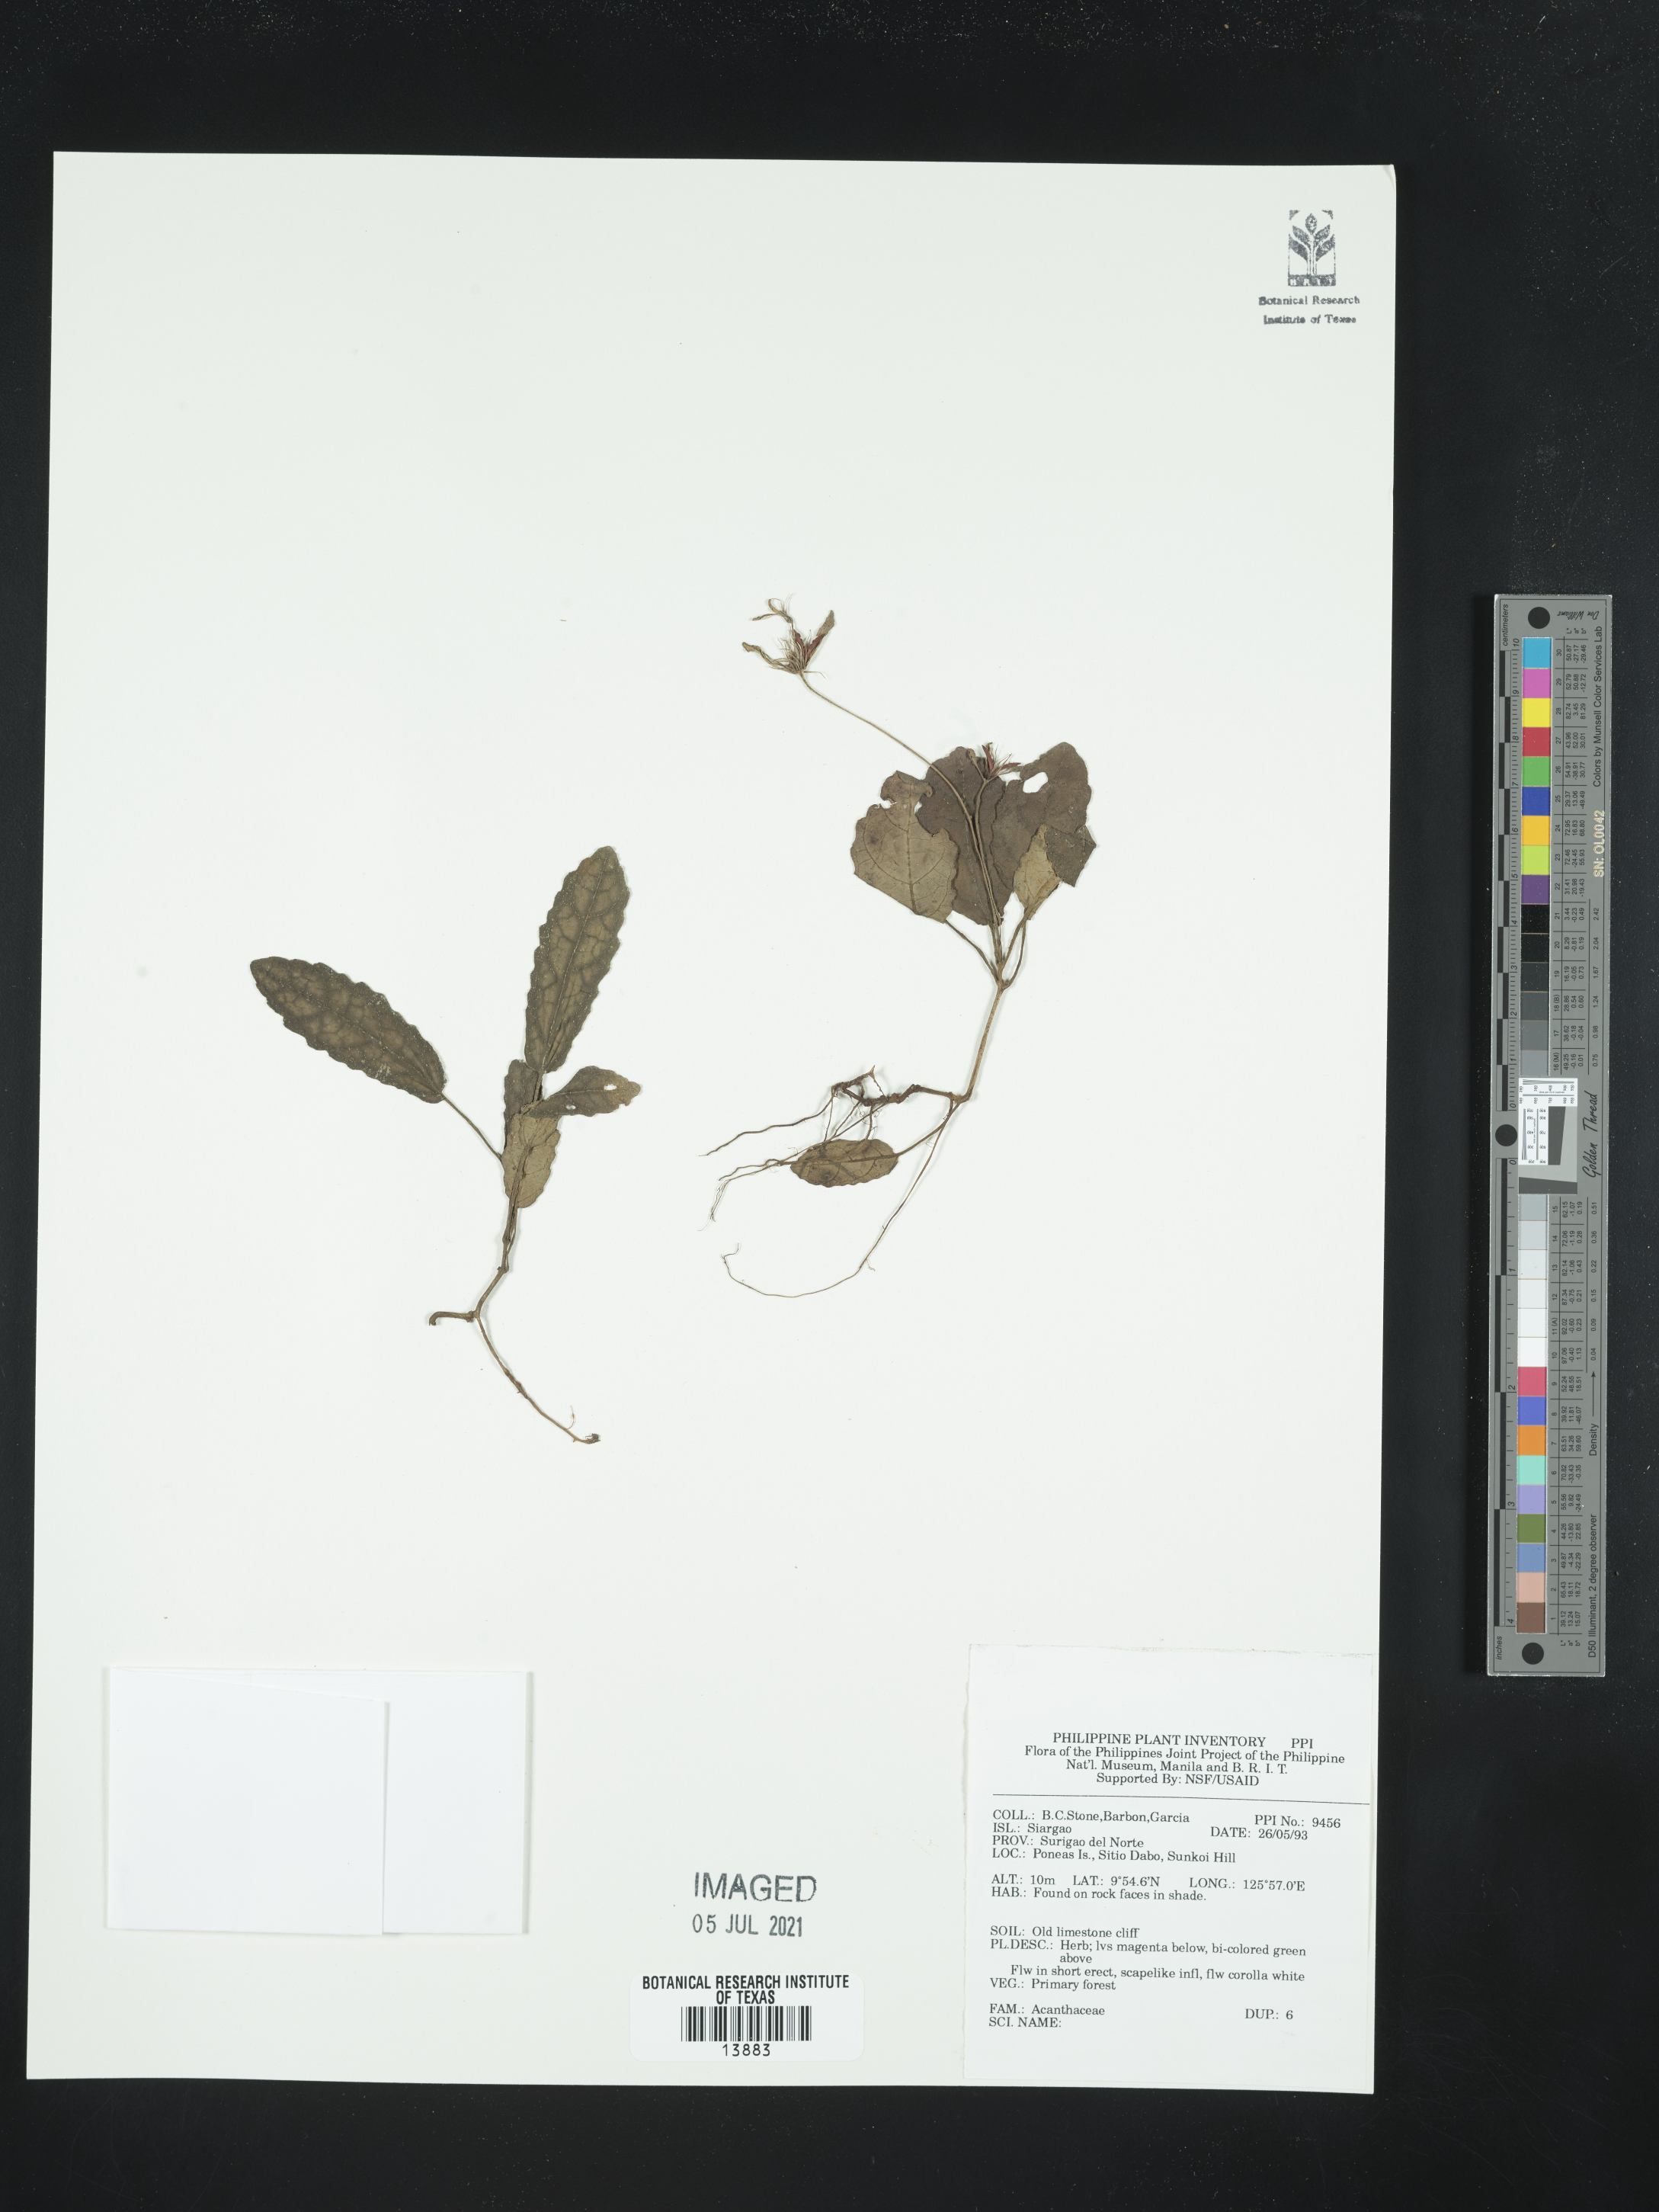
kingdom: Plantae
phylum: Tracheophyta
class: Magnoliopsida
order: Lamiales
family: Acanthaceae
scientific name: Acanthaceae
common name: Acanthaceae
